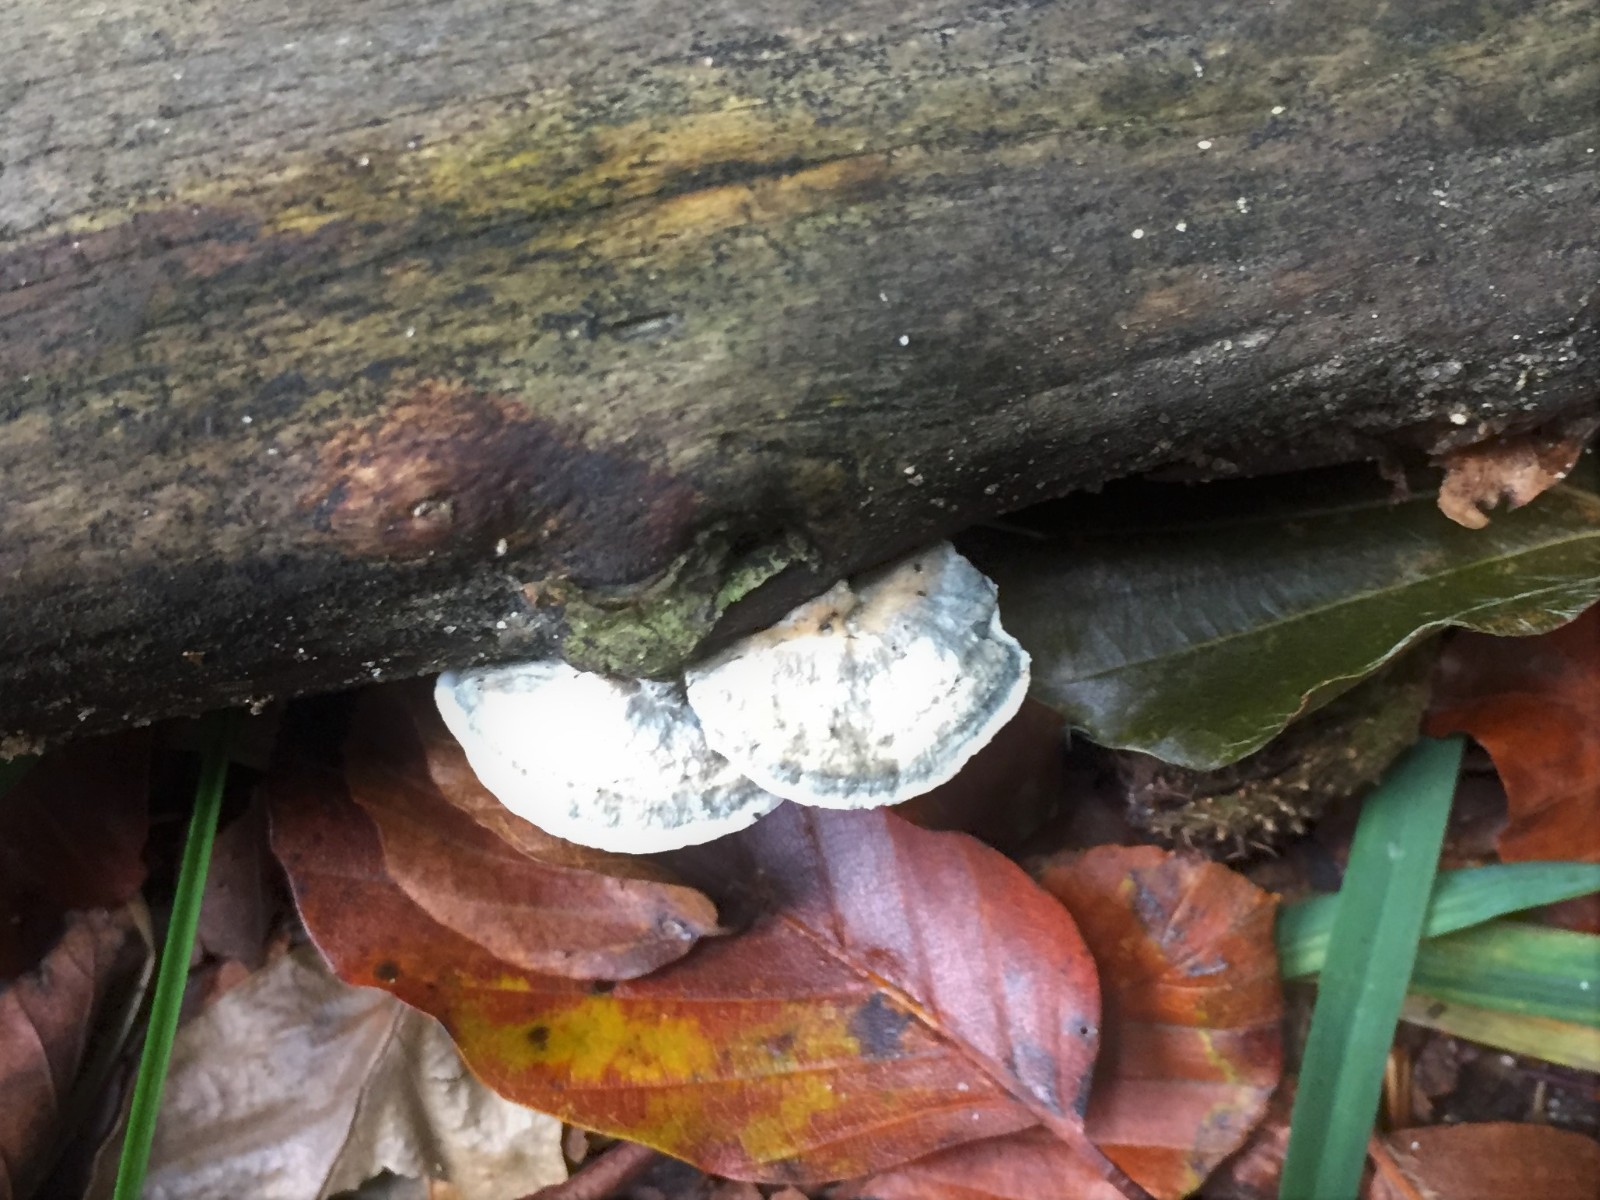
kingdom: Fungi
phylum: Basidiomycota
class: Agaricomycetes
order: Polyporales
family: Polyporaceae
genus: Cyanosporus
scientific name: Cyanosporus alni
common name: blegblå kødporesvamp
